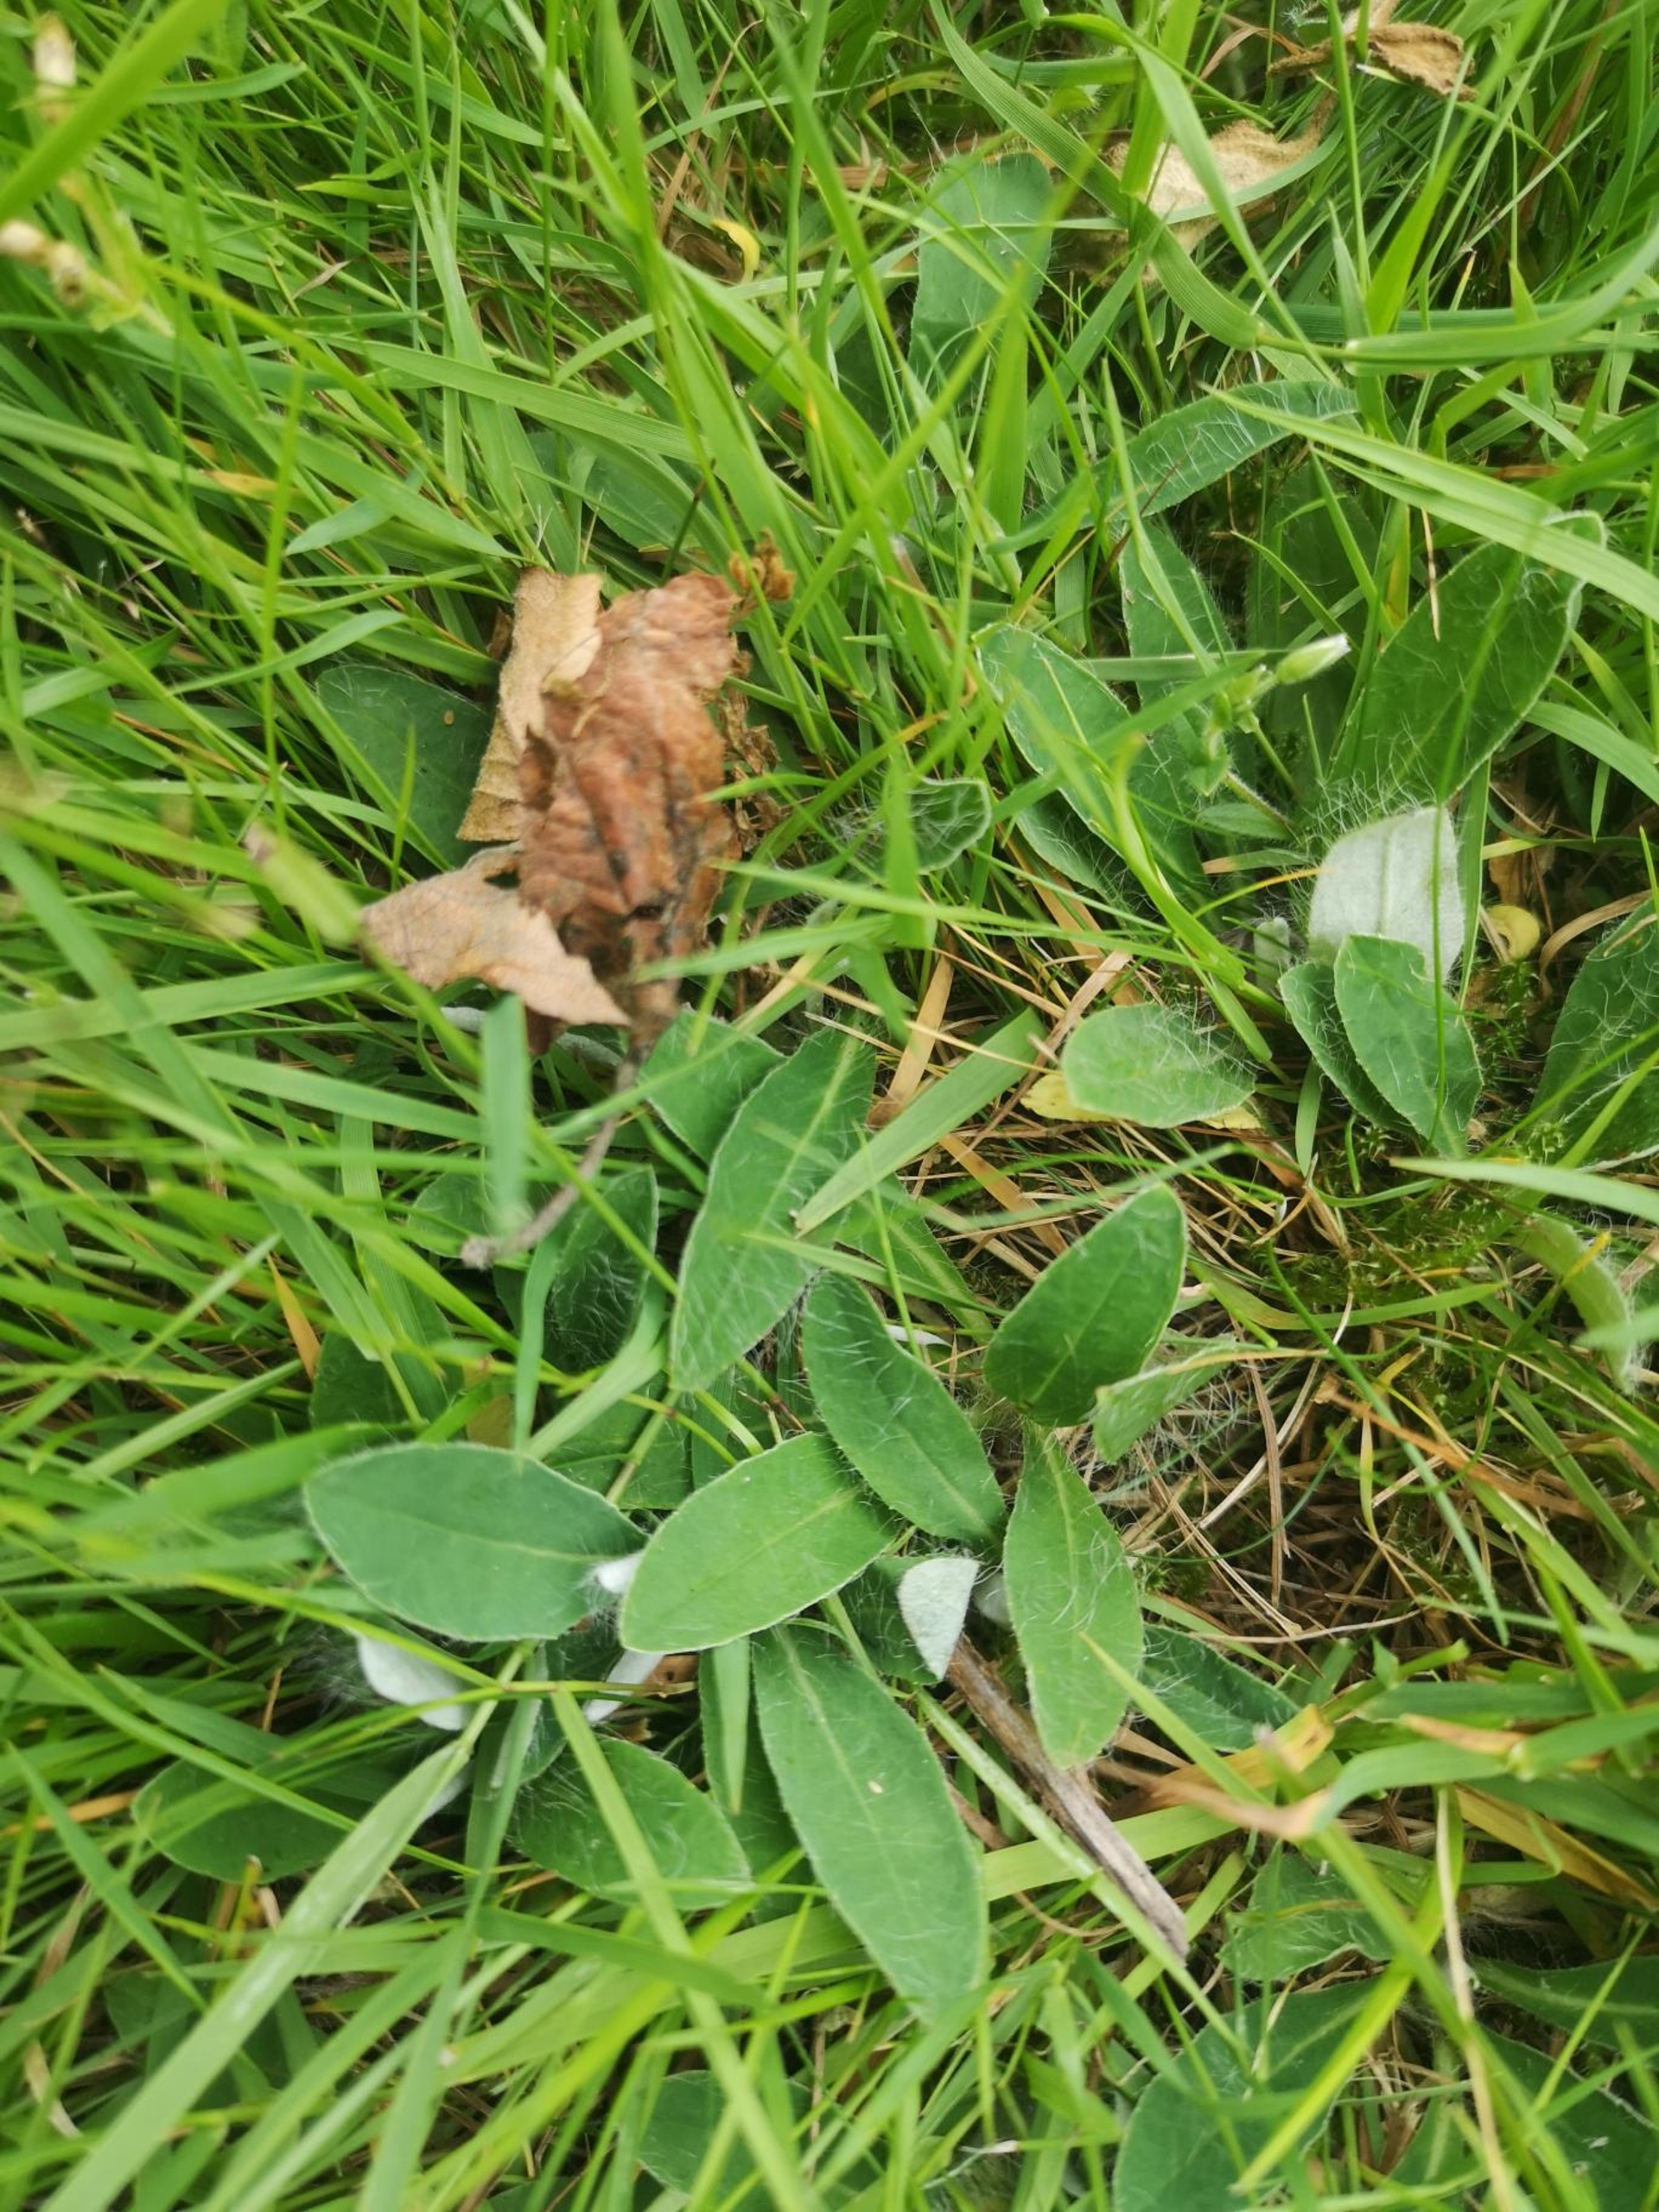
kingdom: Plantae
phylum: Tracheophyta
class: Magnoliopsida
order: Asterales
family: Asteraceae
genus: Pilosella
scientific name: Pilosella officinarum
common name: Håret høgeurt
